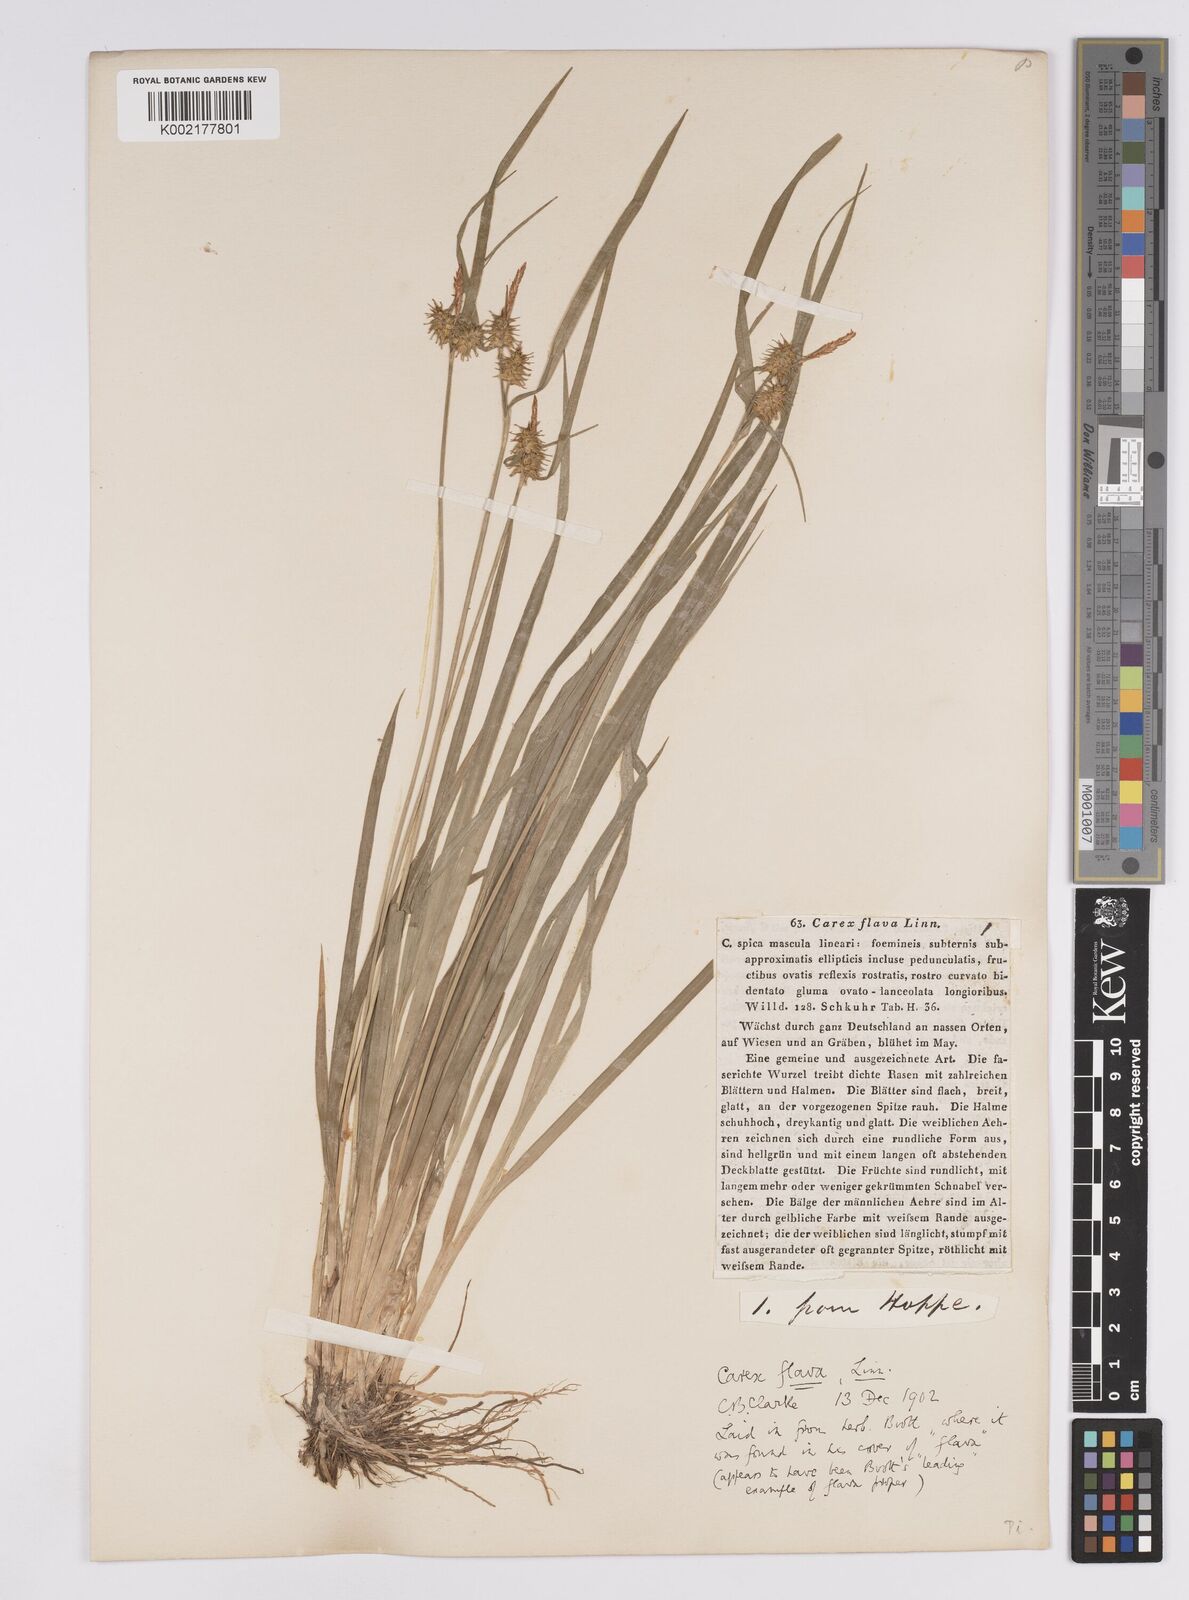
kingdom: Plantae
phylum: Tracheophyta
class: Liliopsida
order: Poales
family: Cyperaceae
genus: Carex
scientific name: Carex flava
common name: Large yellow-sedge
